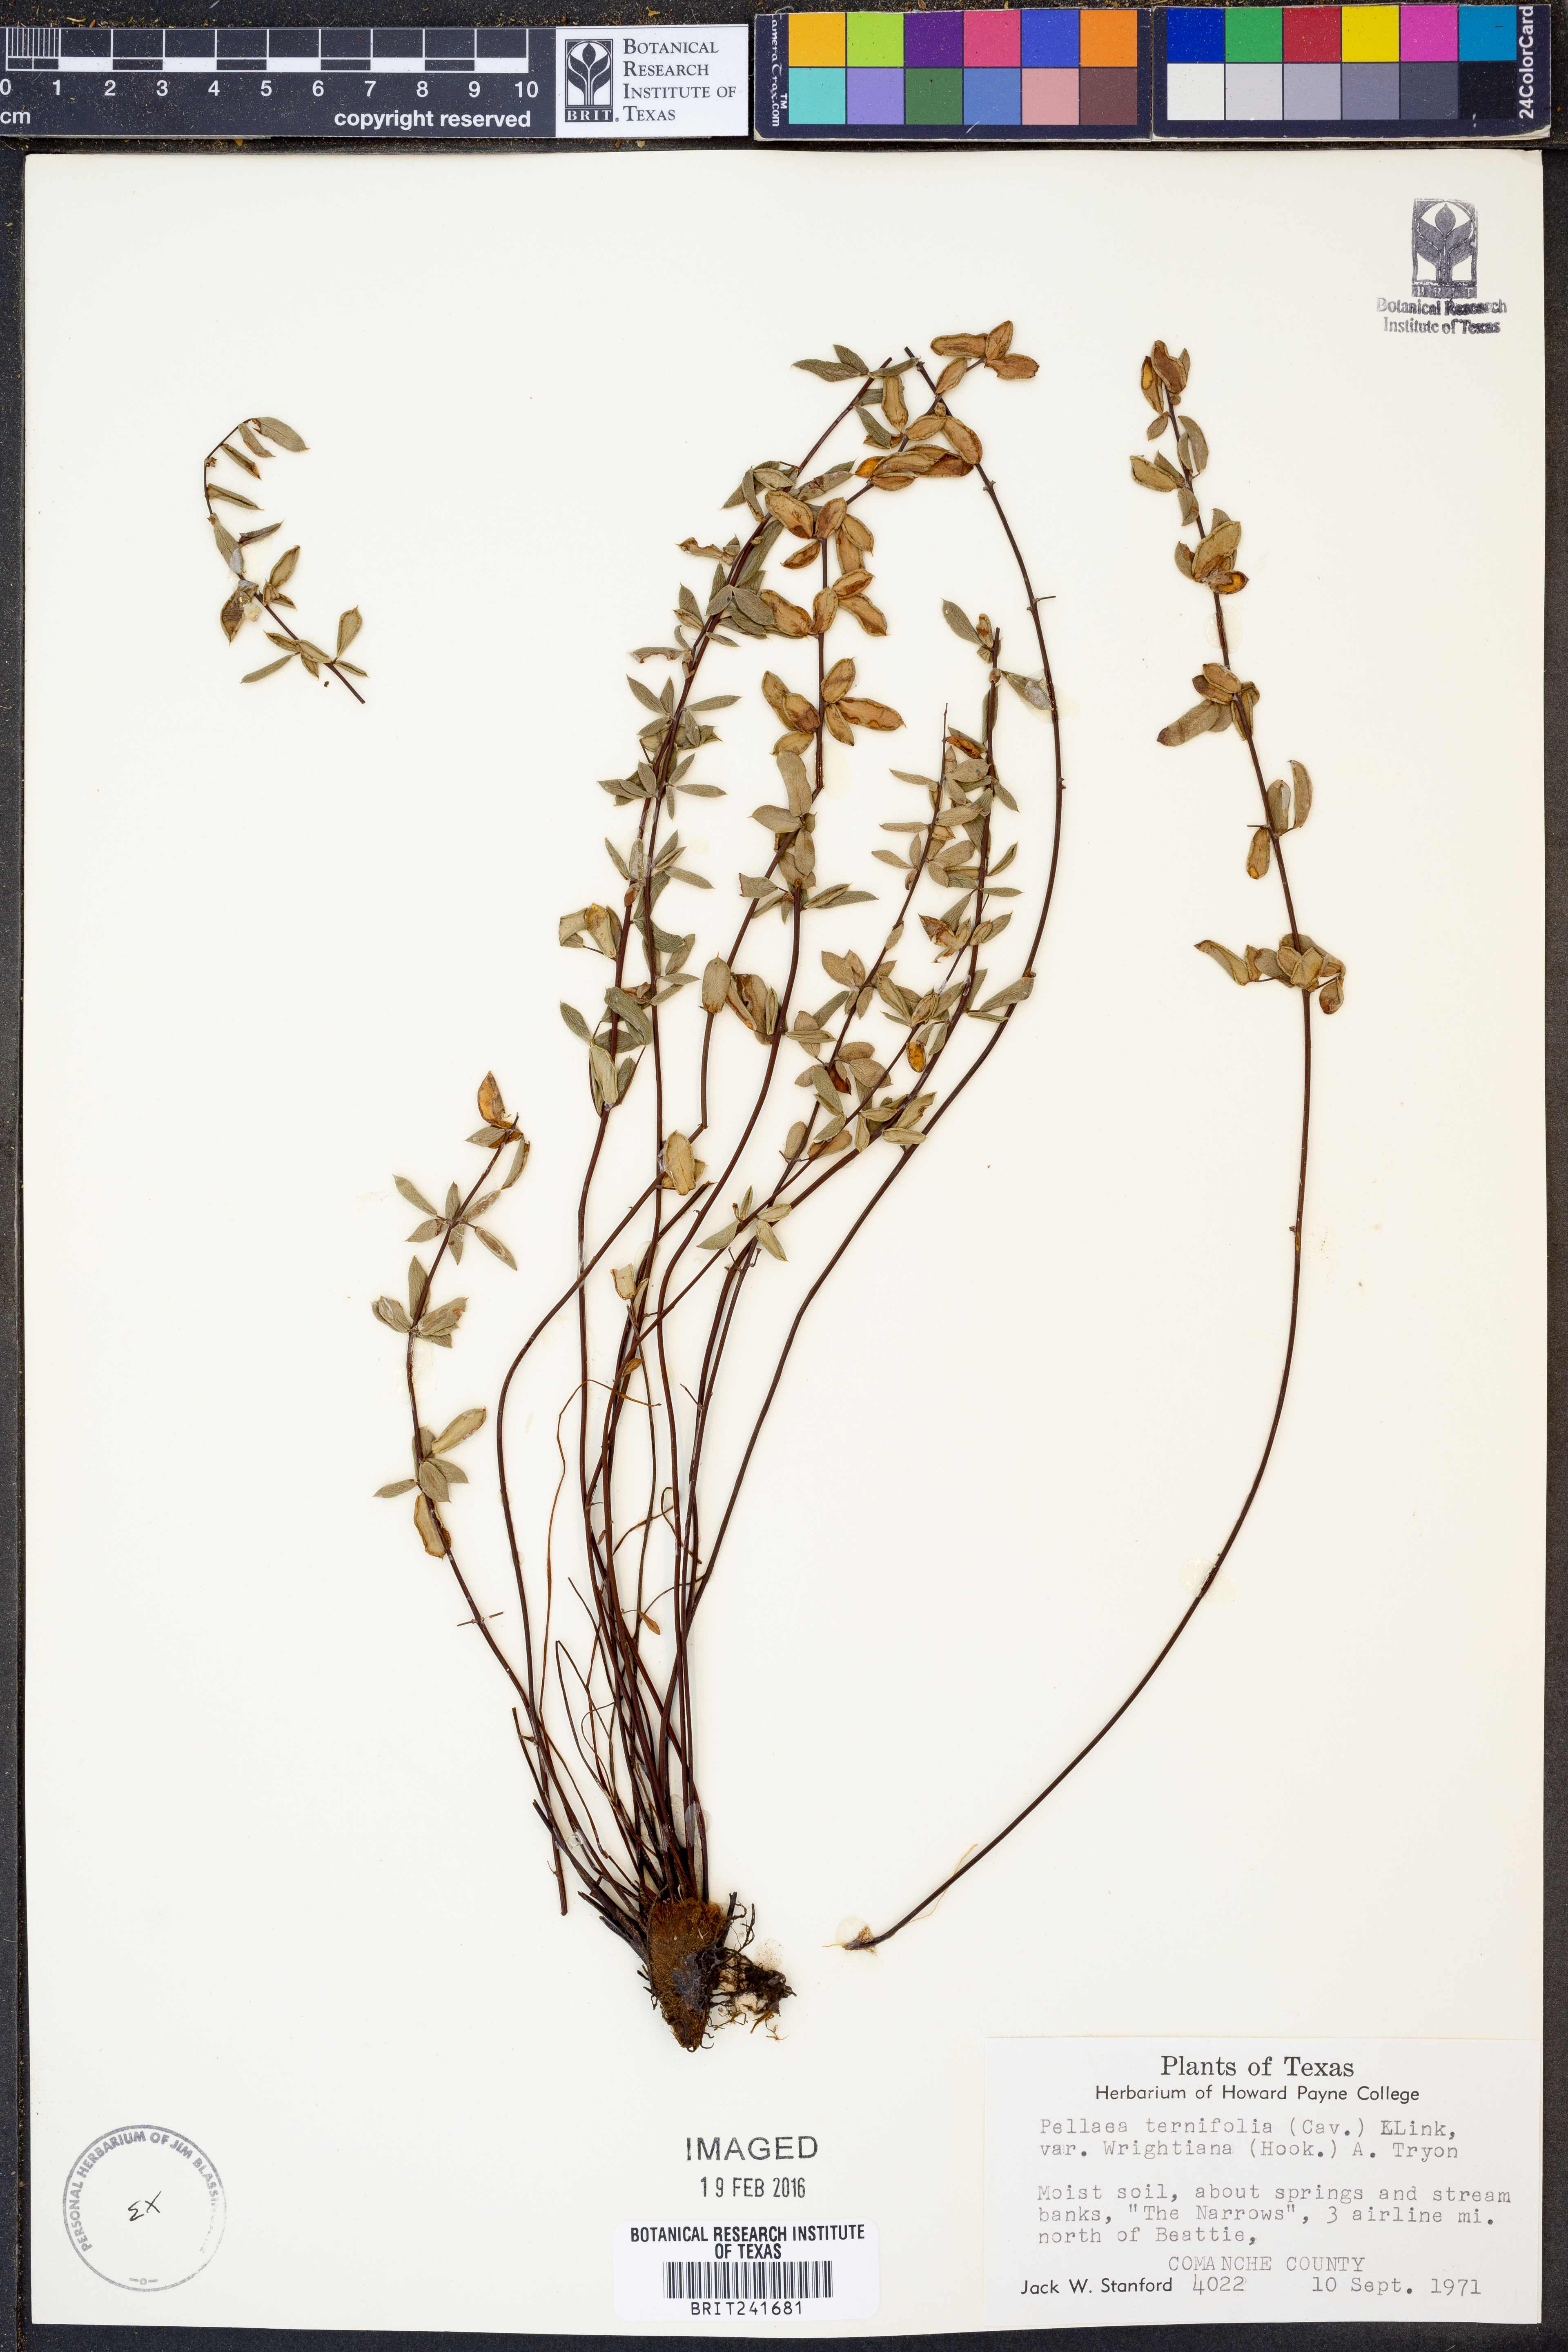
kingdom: Plantae
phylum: Tracheophyta
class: Polypodiopsida
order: Polypodiales
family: Pteridaceae
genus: Pellaea
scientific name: Pellaea wrightiana
